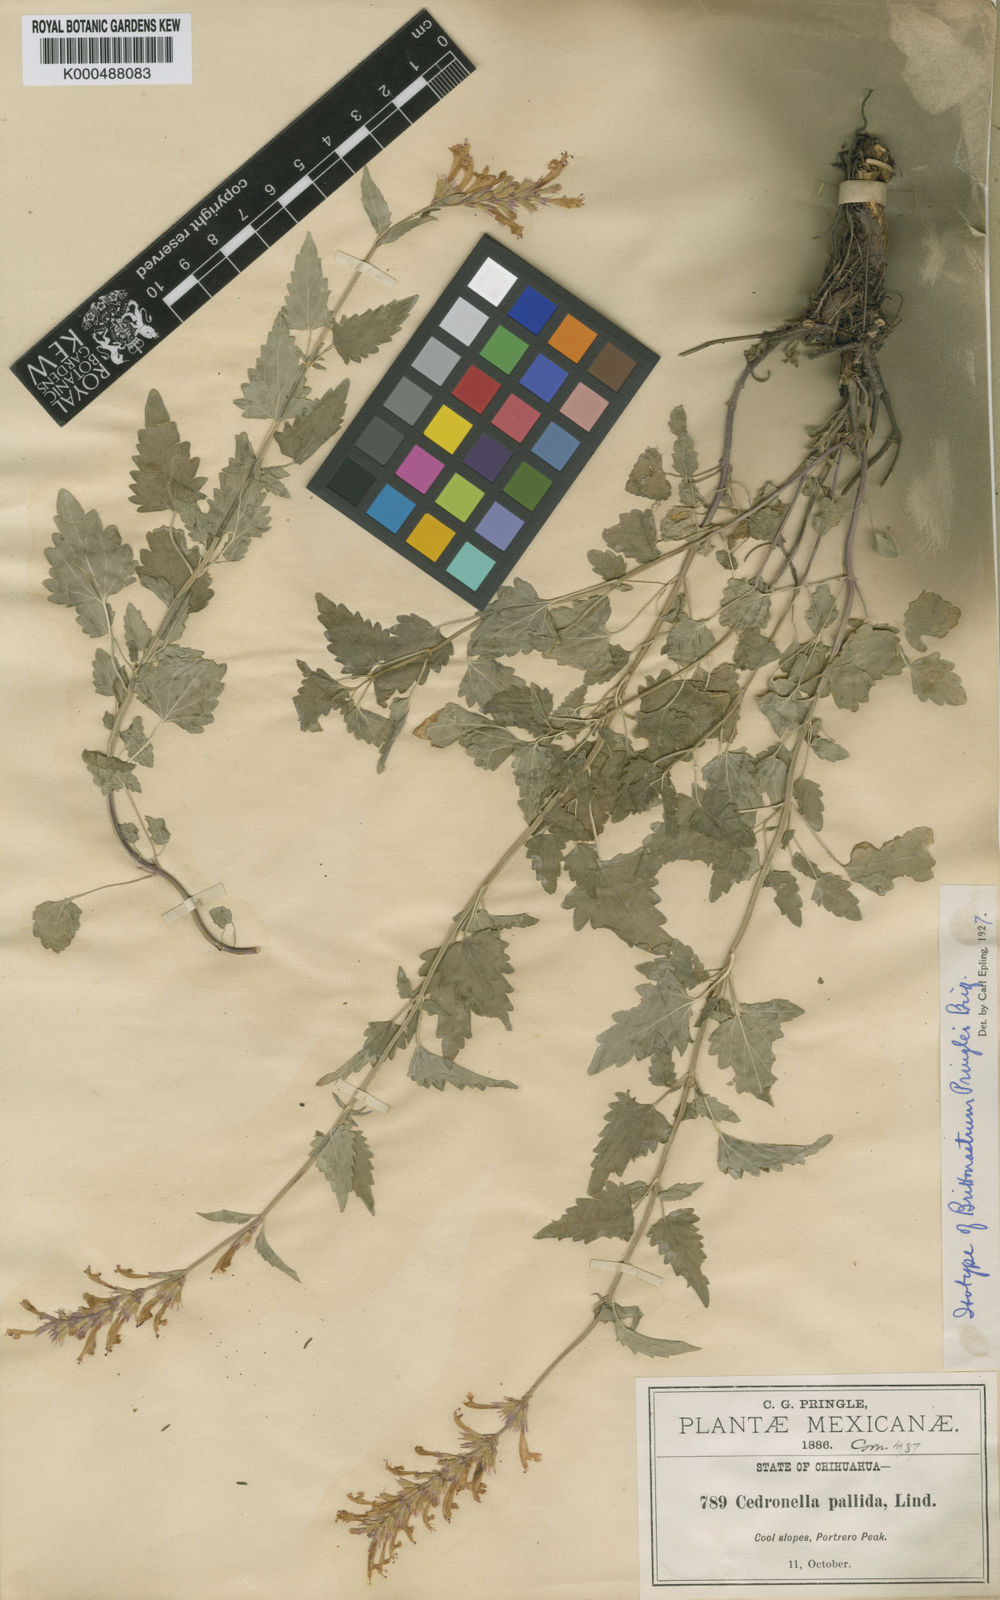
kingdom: Plantae
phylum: Tracheophyta
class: Magnoliopsida
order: Lamiales
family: Lamiaceae
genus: Agastache
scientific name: Agastache pringlei
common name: Pringle's giant hyssop
